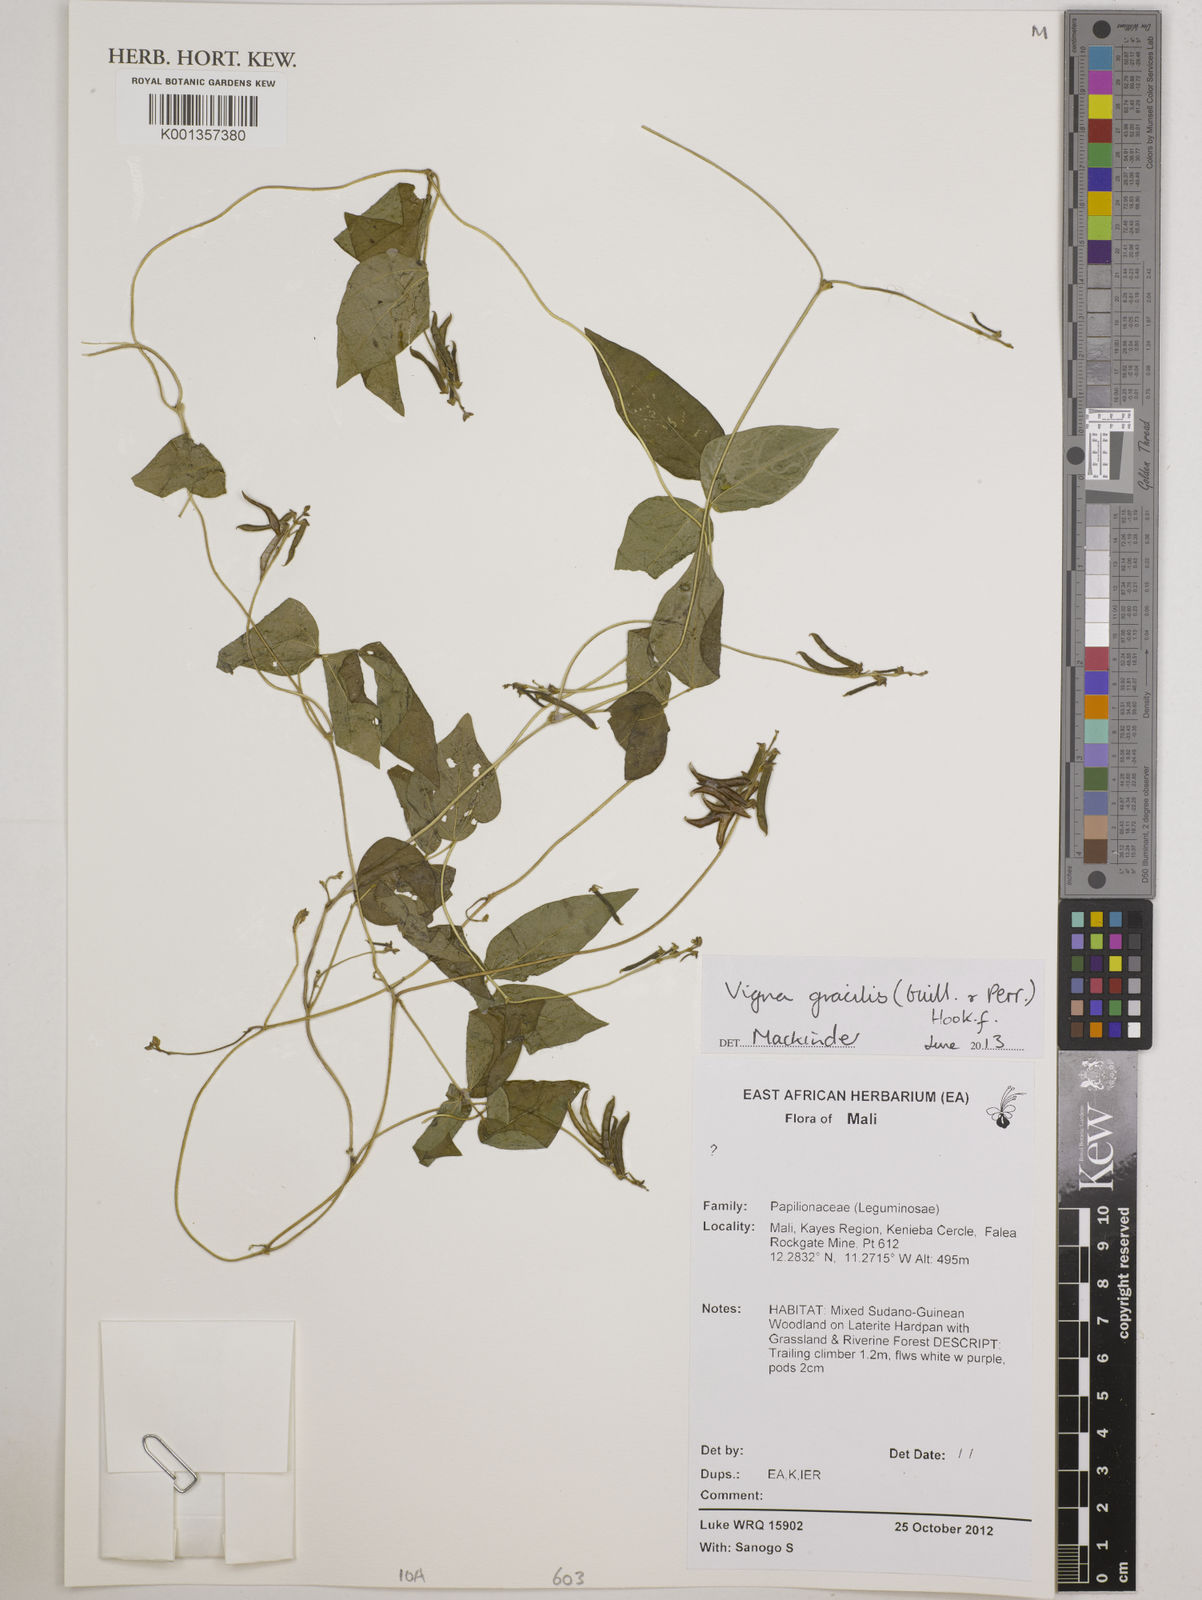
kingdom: Plantae
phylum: Tracheophyta
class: Magnoliopsida
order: Fabales
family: Fabaceae
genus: Vigna
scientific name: Vigna gracilis
